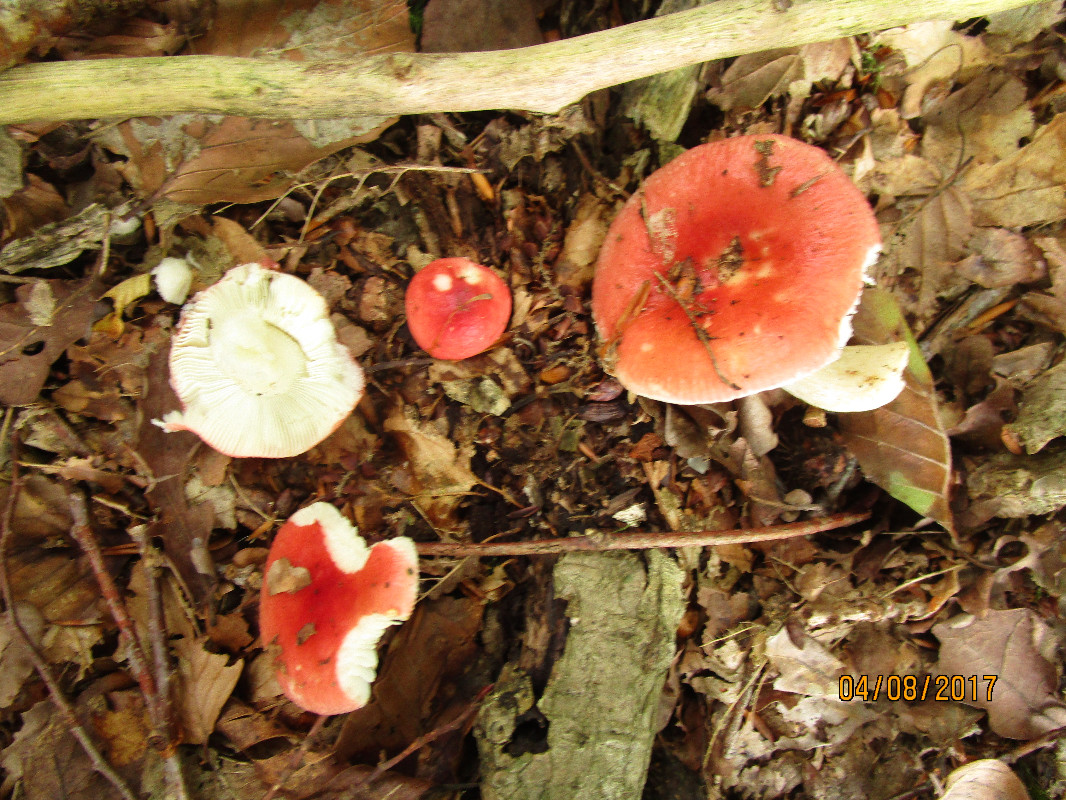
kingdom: Fungi
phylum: Basidiomycota
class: Agaricomycetes
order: Russulales
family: Russulaceae
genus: Russula
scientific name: Russula nobilis
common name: lille gift-skørhat
